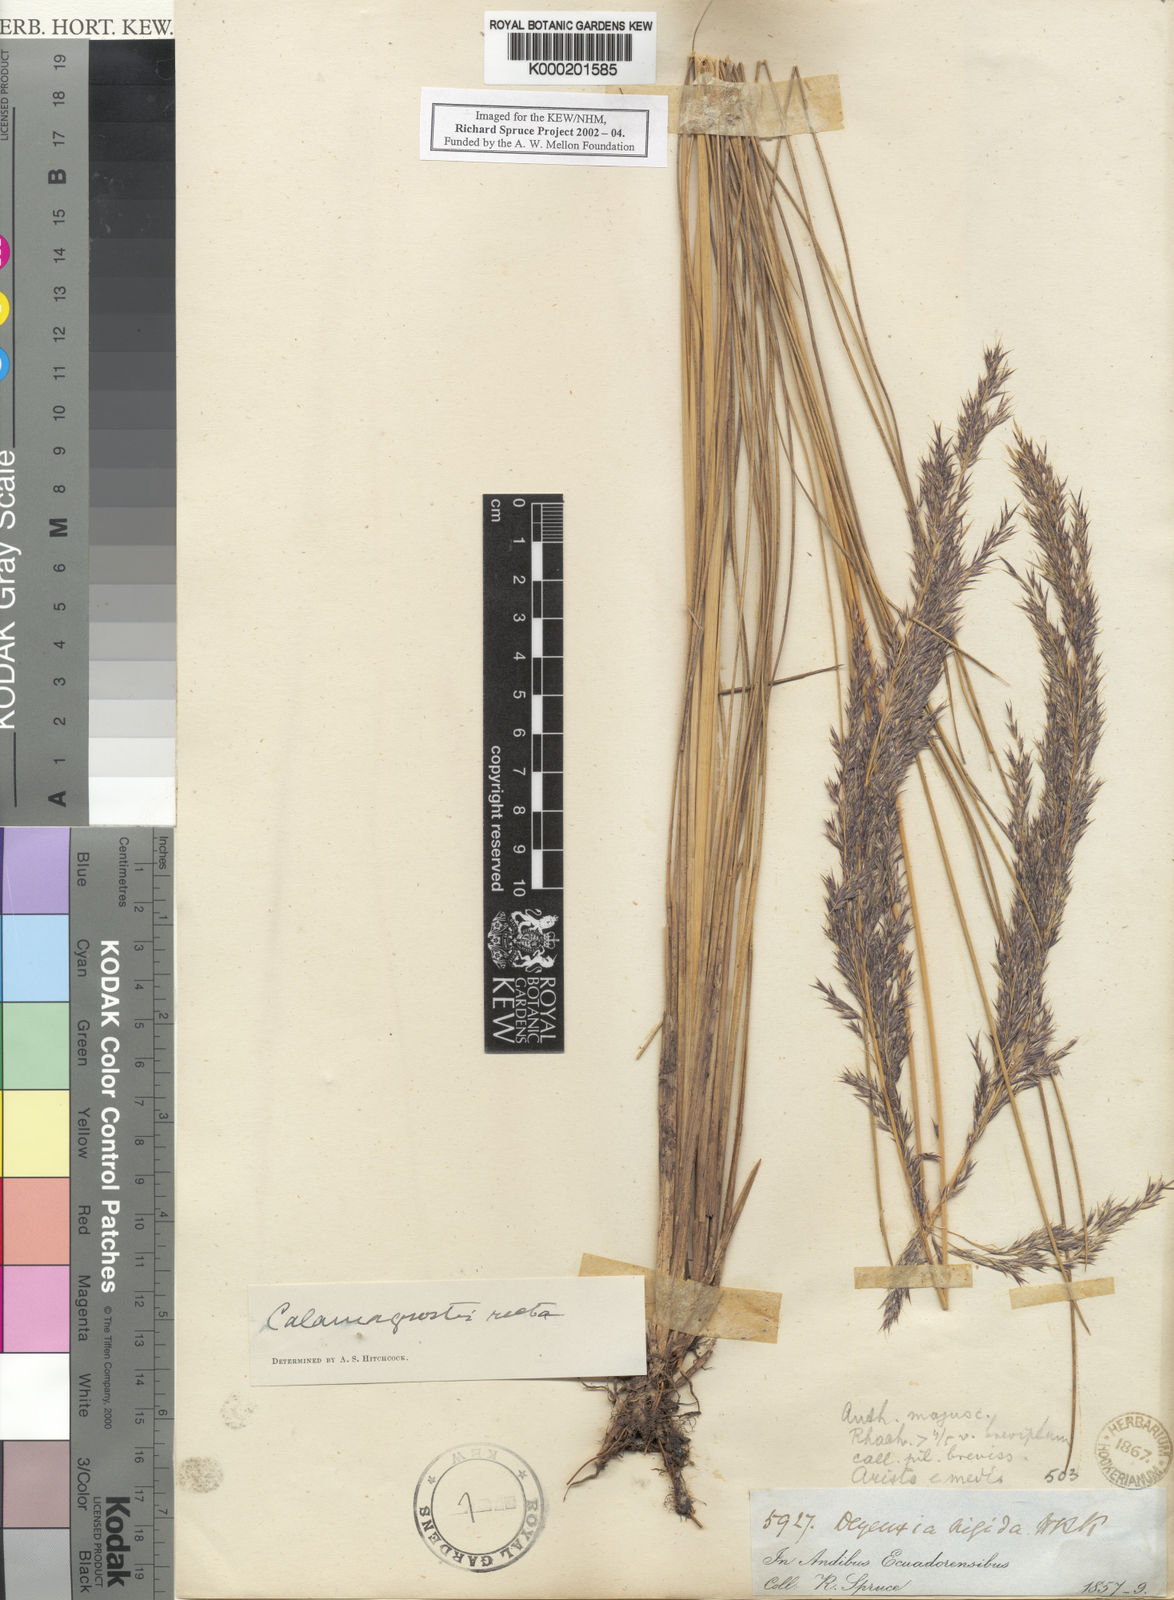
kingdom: Plantae
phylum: Tracheophyta
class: Liliopsida
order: Poales
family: Poaceae
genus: Cinnagrostis
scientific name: Cinnagrostis recta
